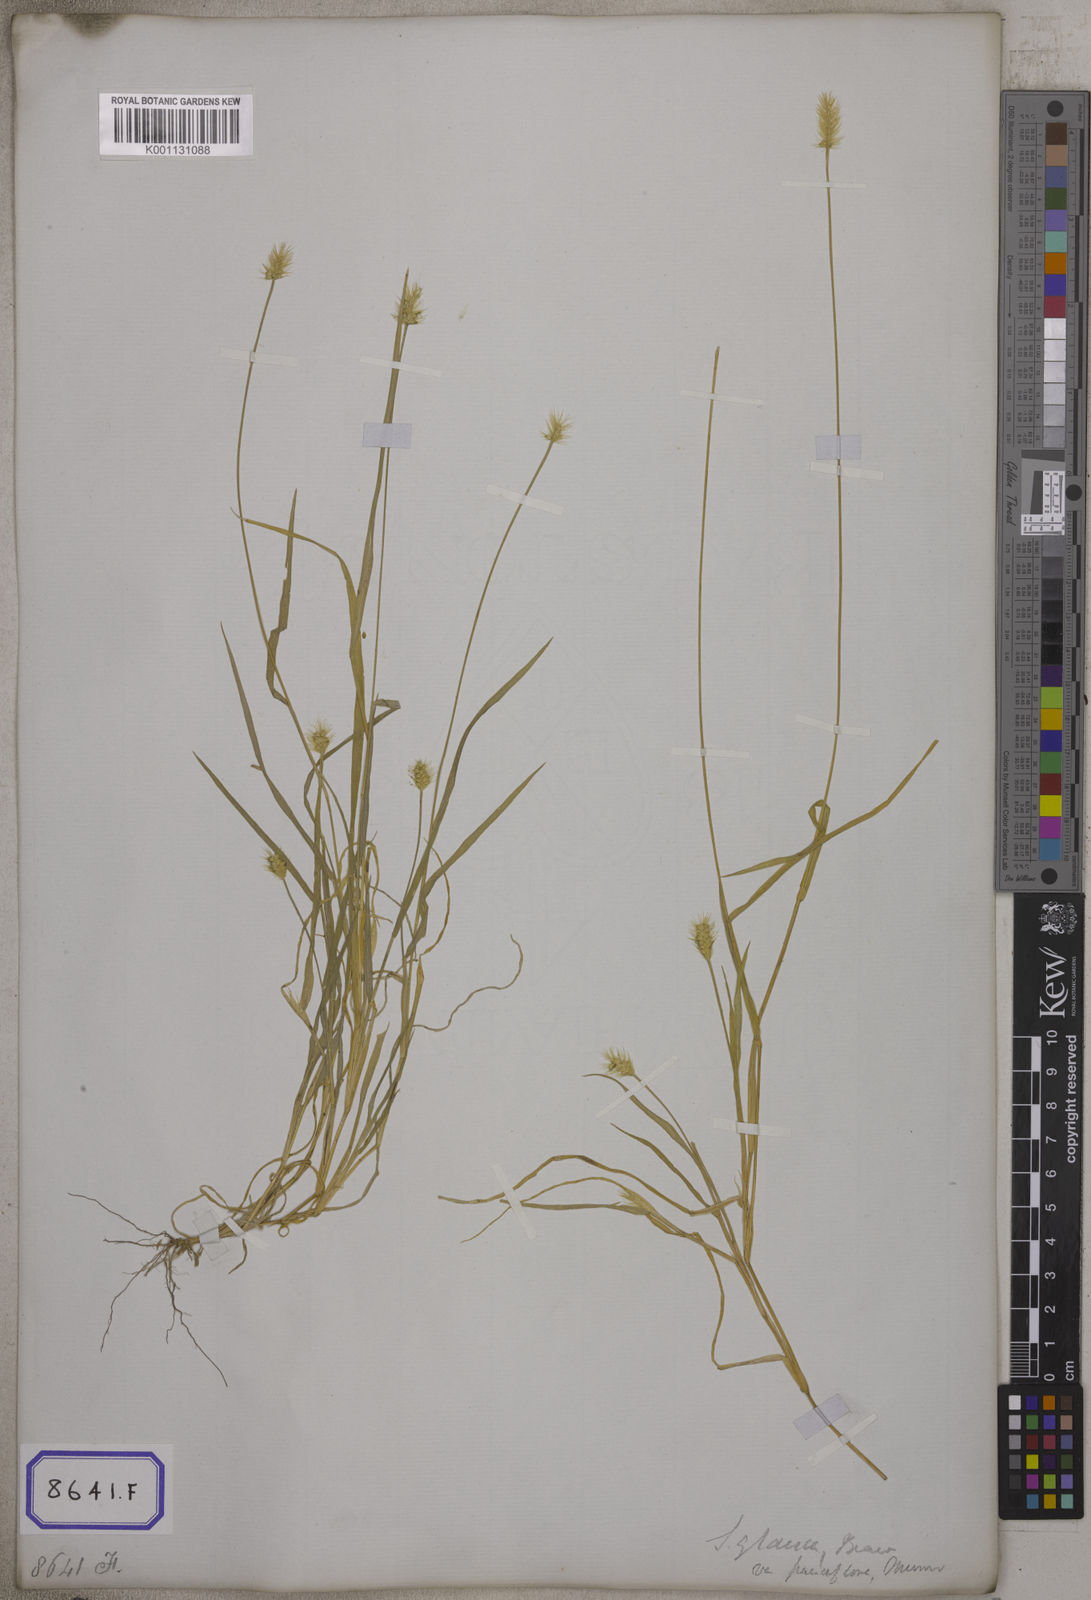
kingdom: Plantae
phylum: Tracheophyta
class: Liliopsida
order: Poales
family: Poaceae
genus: Setaria
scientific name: Setaria parviflora
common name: Knotroot bristle-grass
